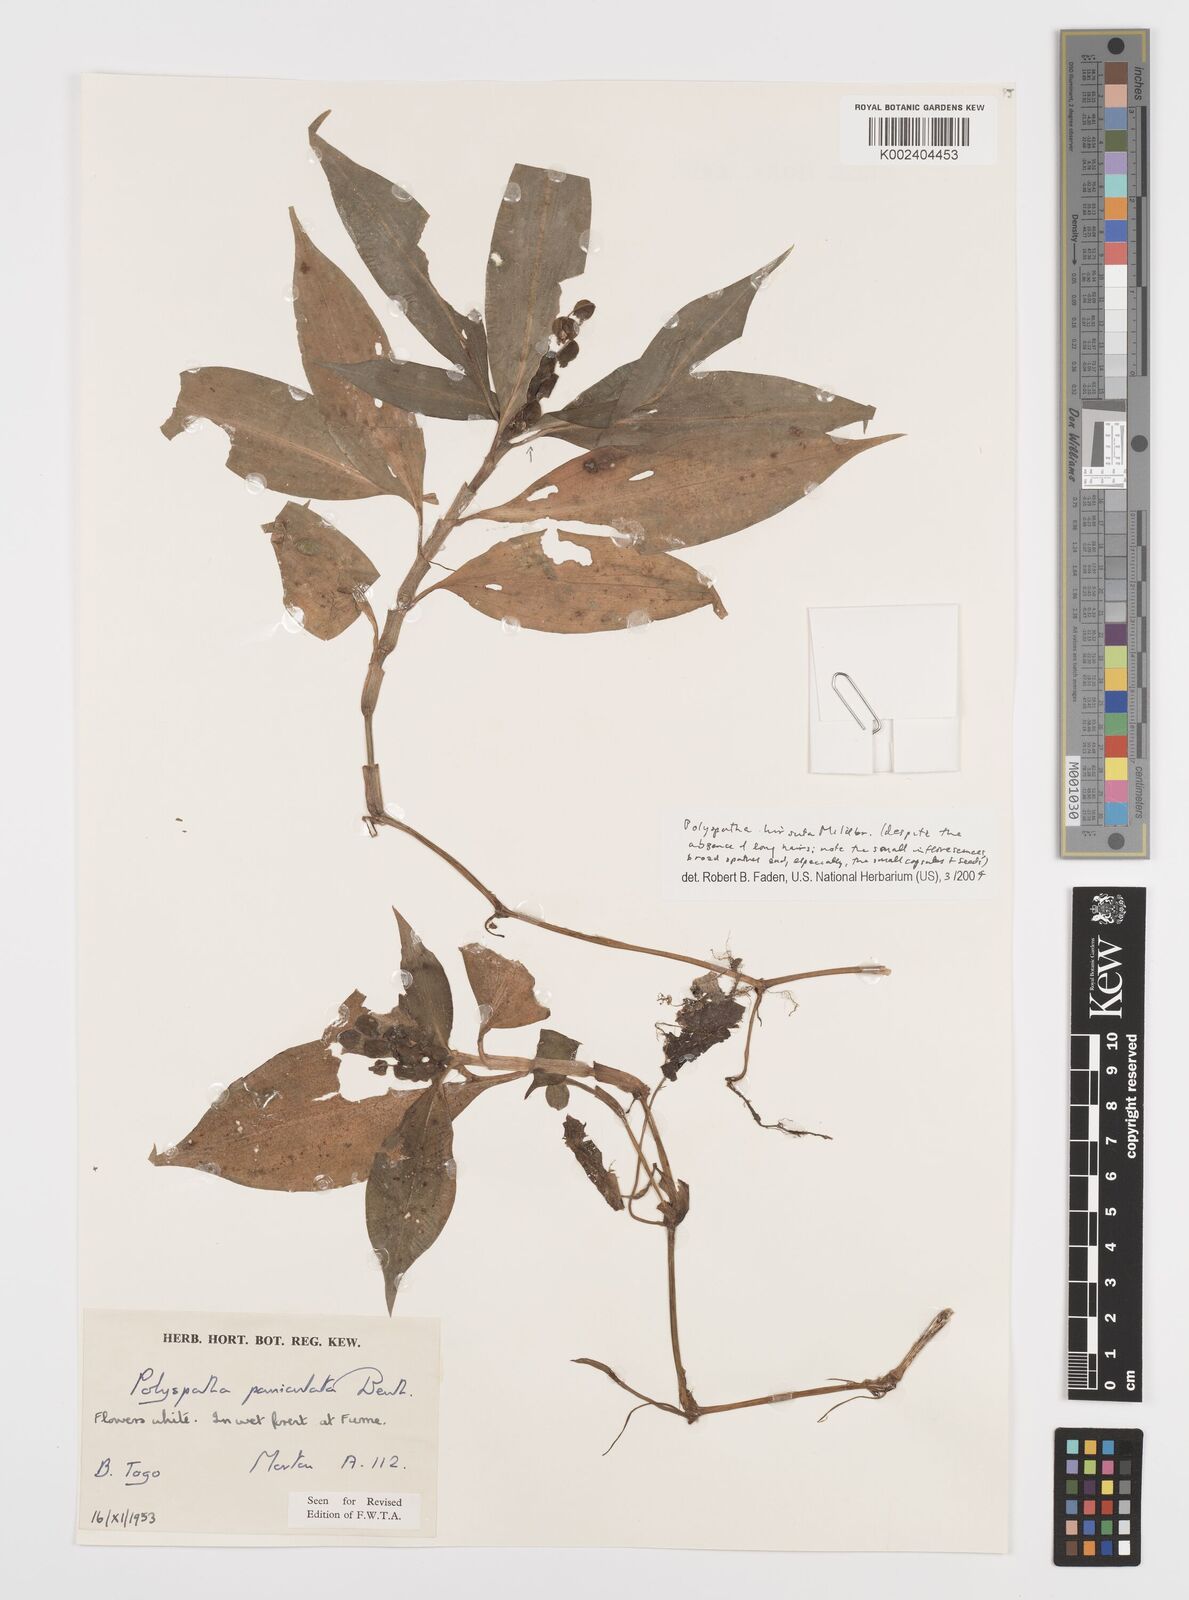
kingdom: Plantae
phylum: Tracheophyta
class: Liliopsida
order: Commelinales
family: Commelinaceae
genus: Polyspatha
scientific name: Polyspatha hirsuta
